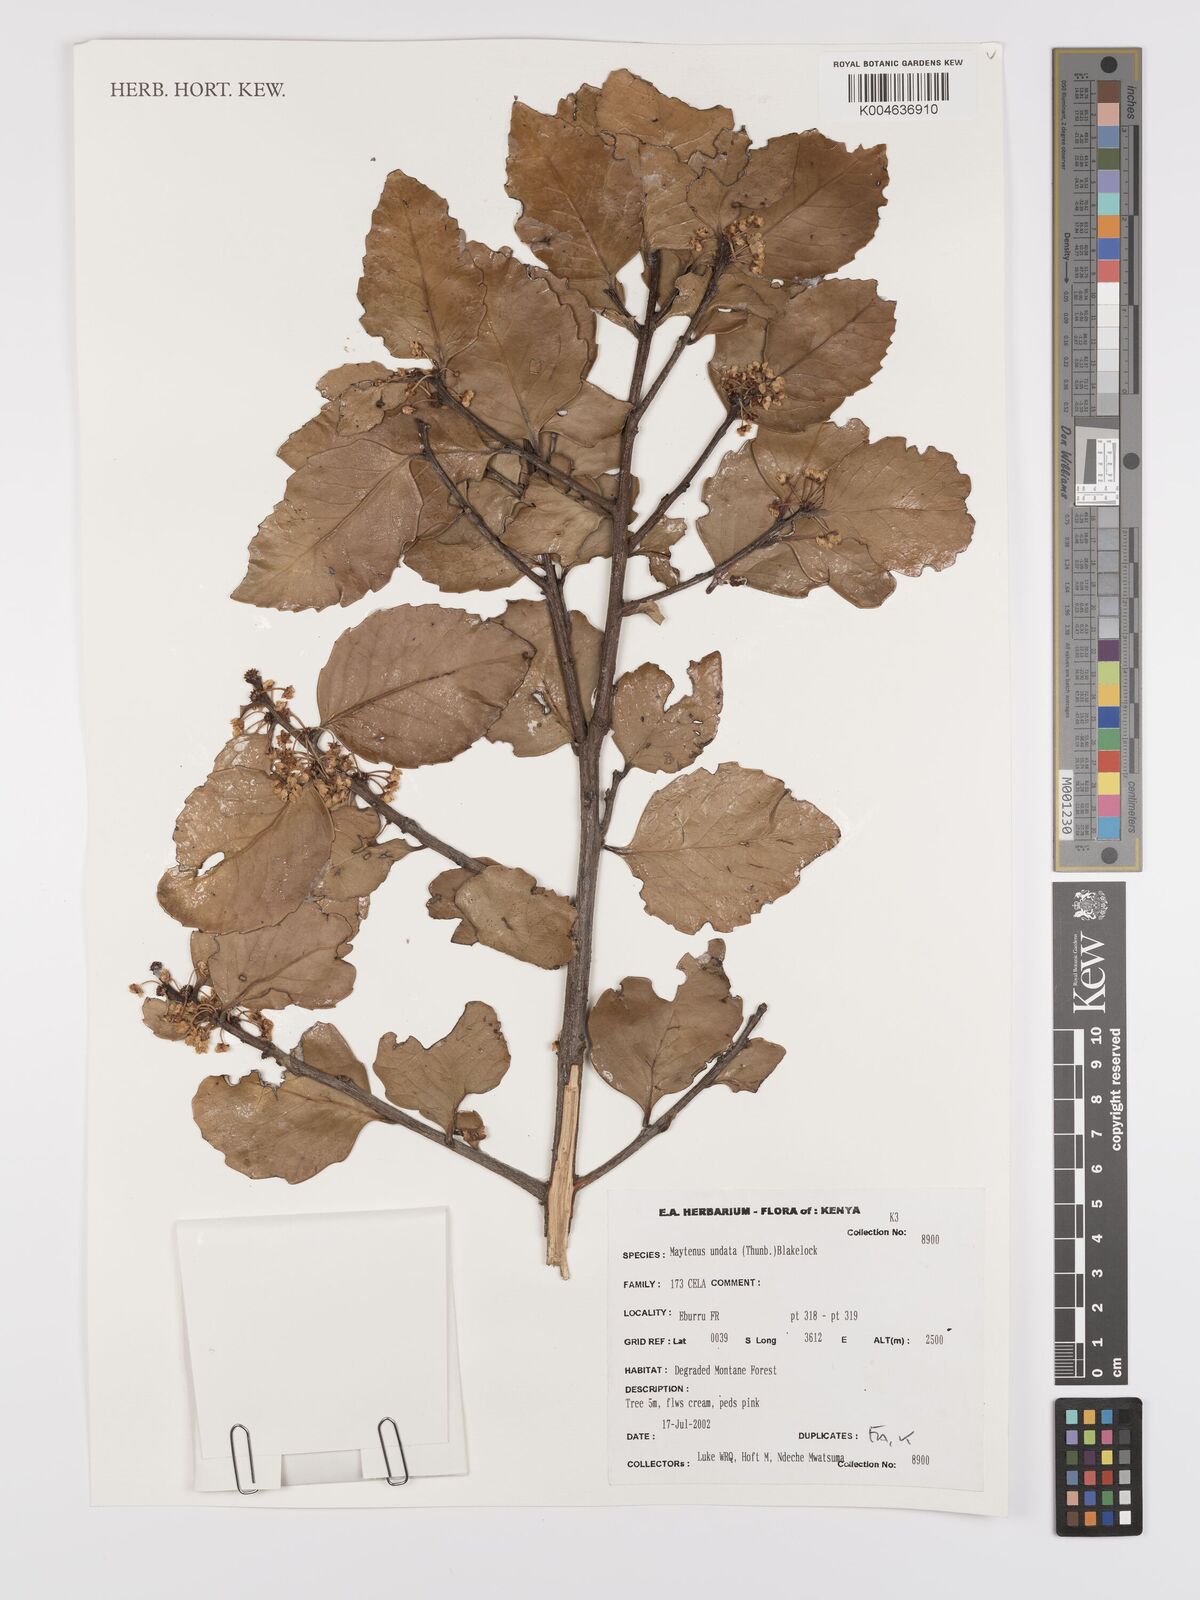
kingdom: Plantae
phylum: Tracheophyta
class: Magnoliopsida
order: Celastrales
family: Celastraceae
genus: Gymnosporia
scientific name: Gymnosporia undata
